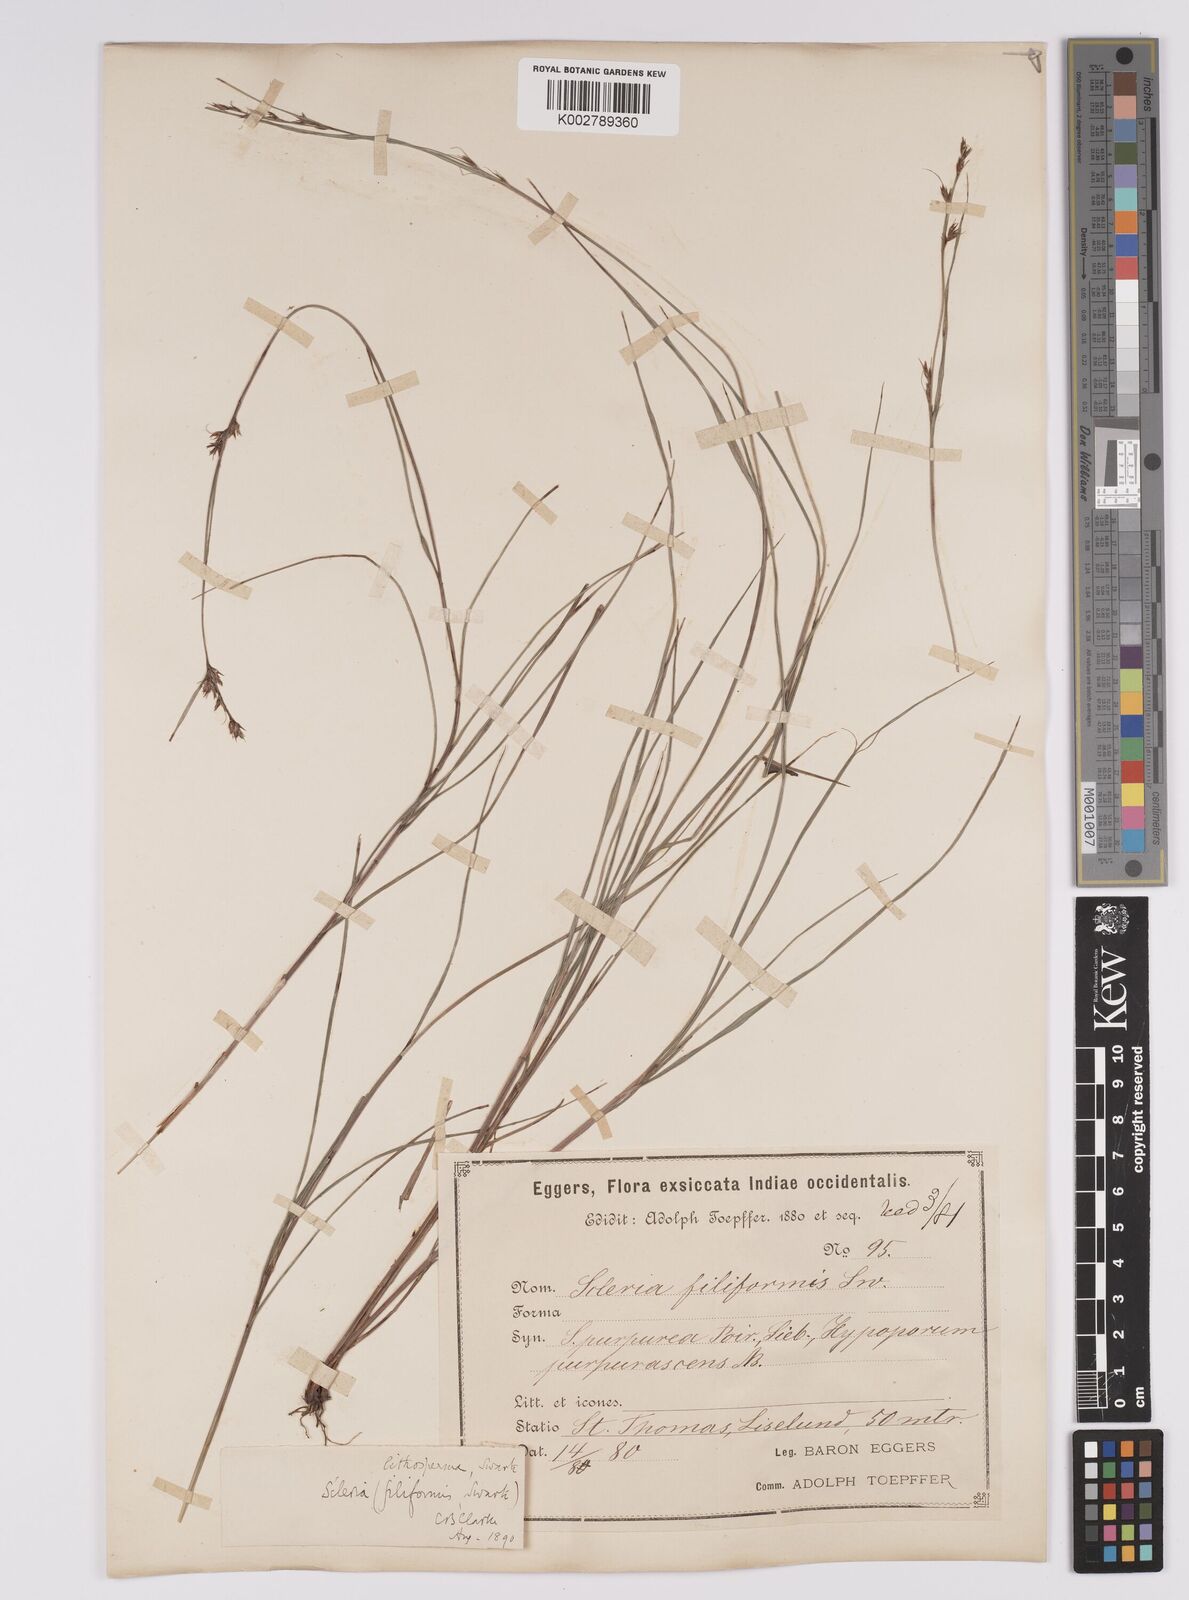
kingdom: Plantae
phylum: Tracheophyta
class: Liliopsida
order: Poales
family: Cyperaceae
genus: Scleria
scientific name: Scleria lithosperma
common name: Florida keys nut-rush
